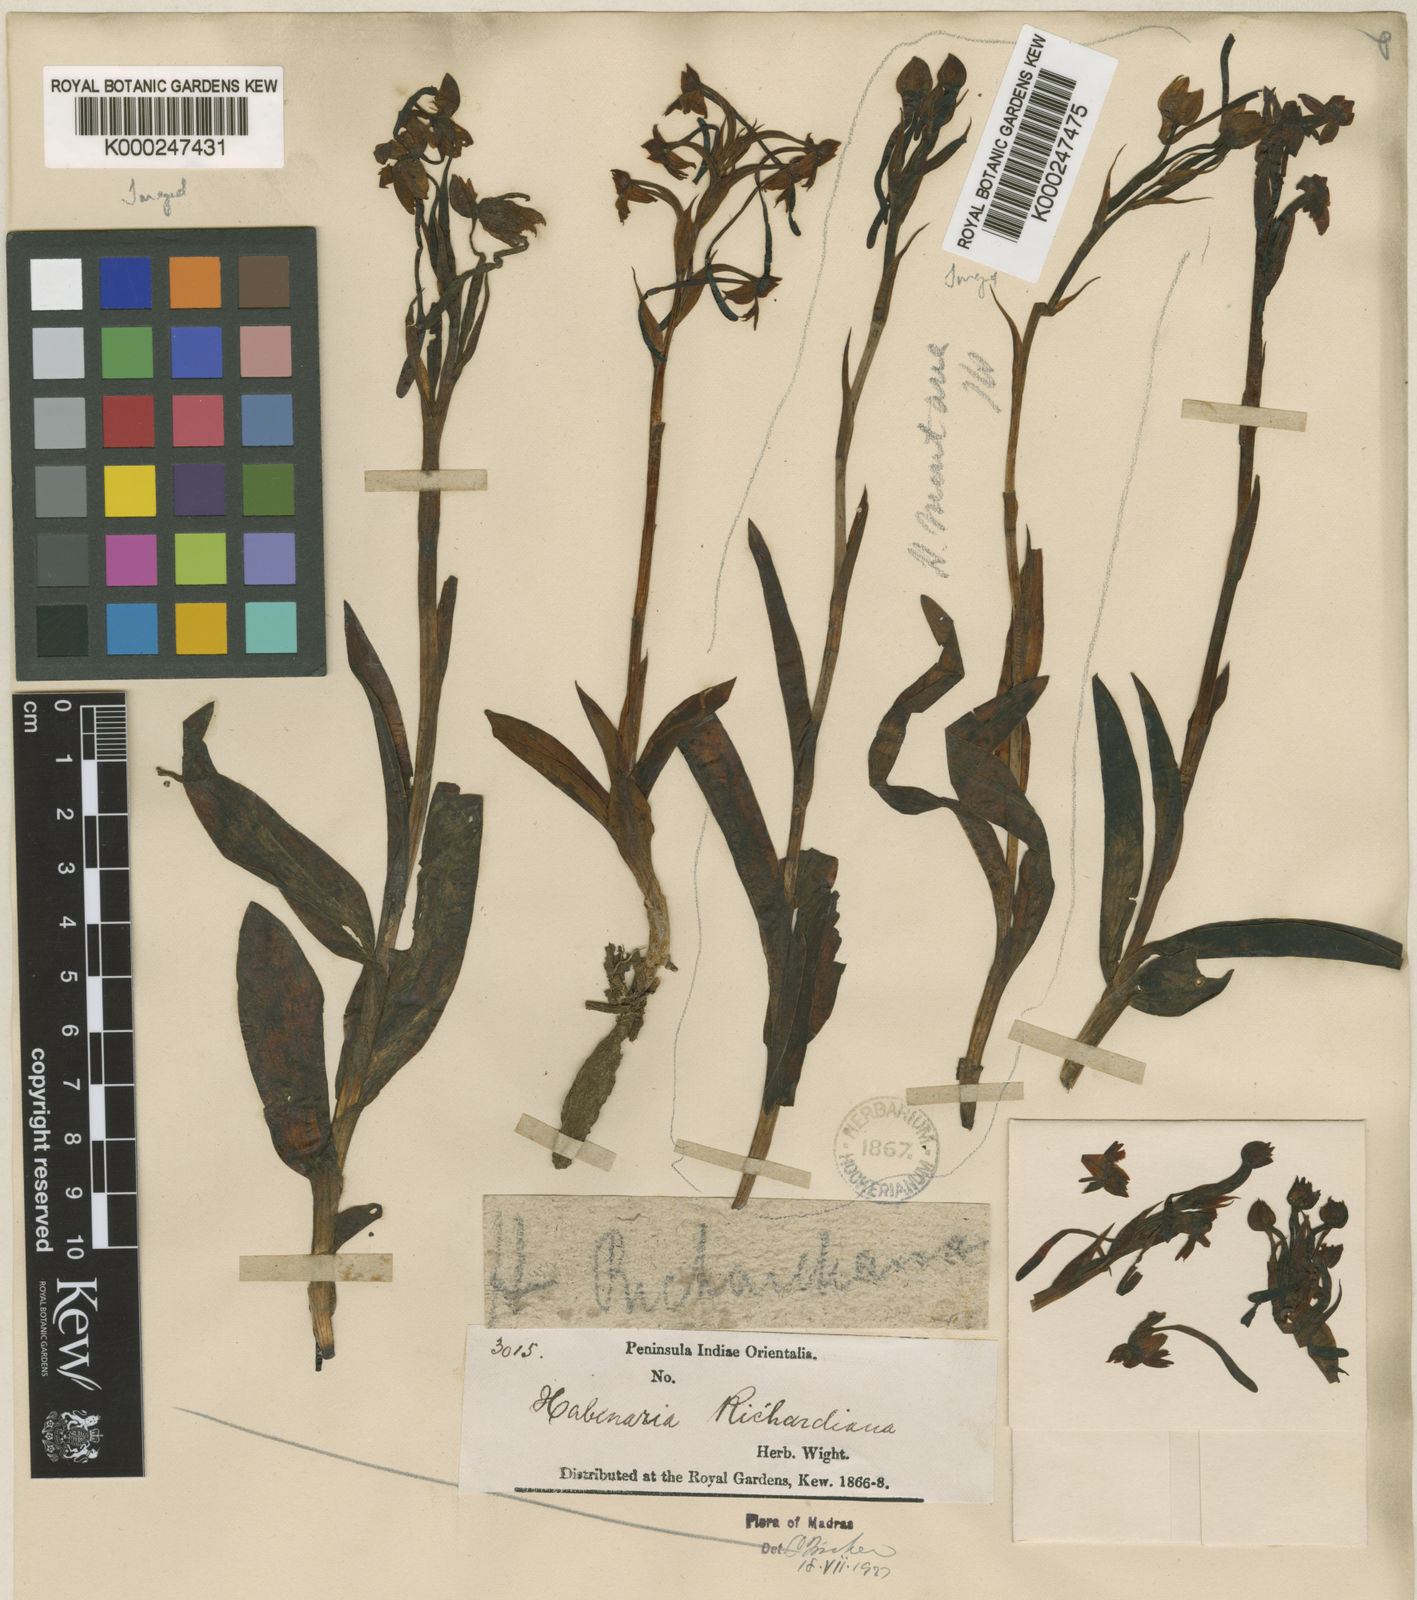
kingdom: Plantae
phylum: Tracheophyta
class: Liliopsida
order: Asparagales
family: Orchidaceae
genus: Habenaria
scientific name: Habenaria richardiana
